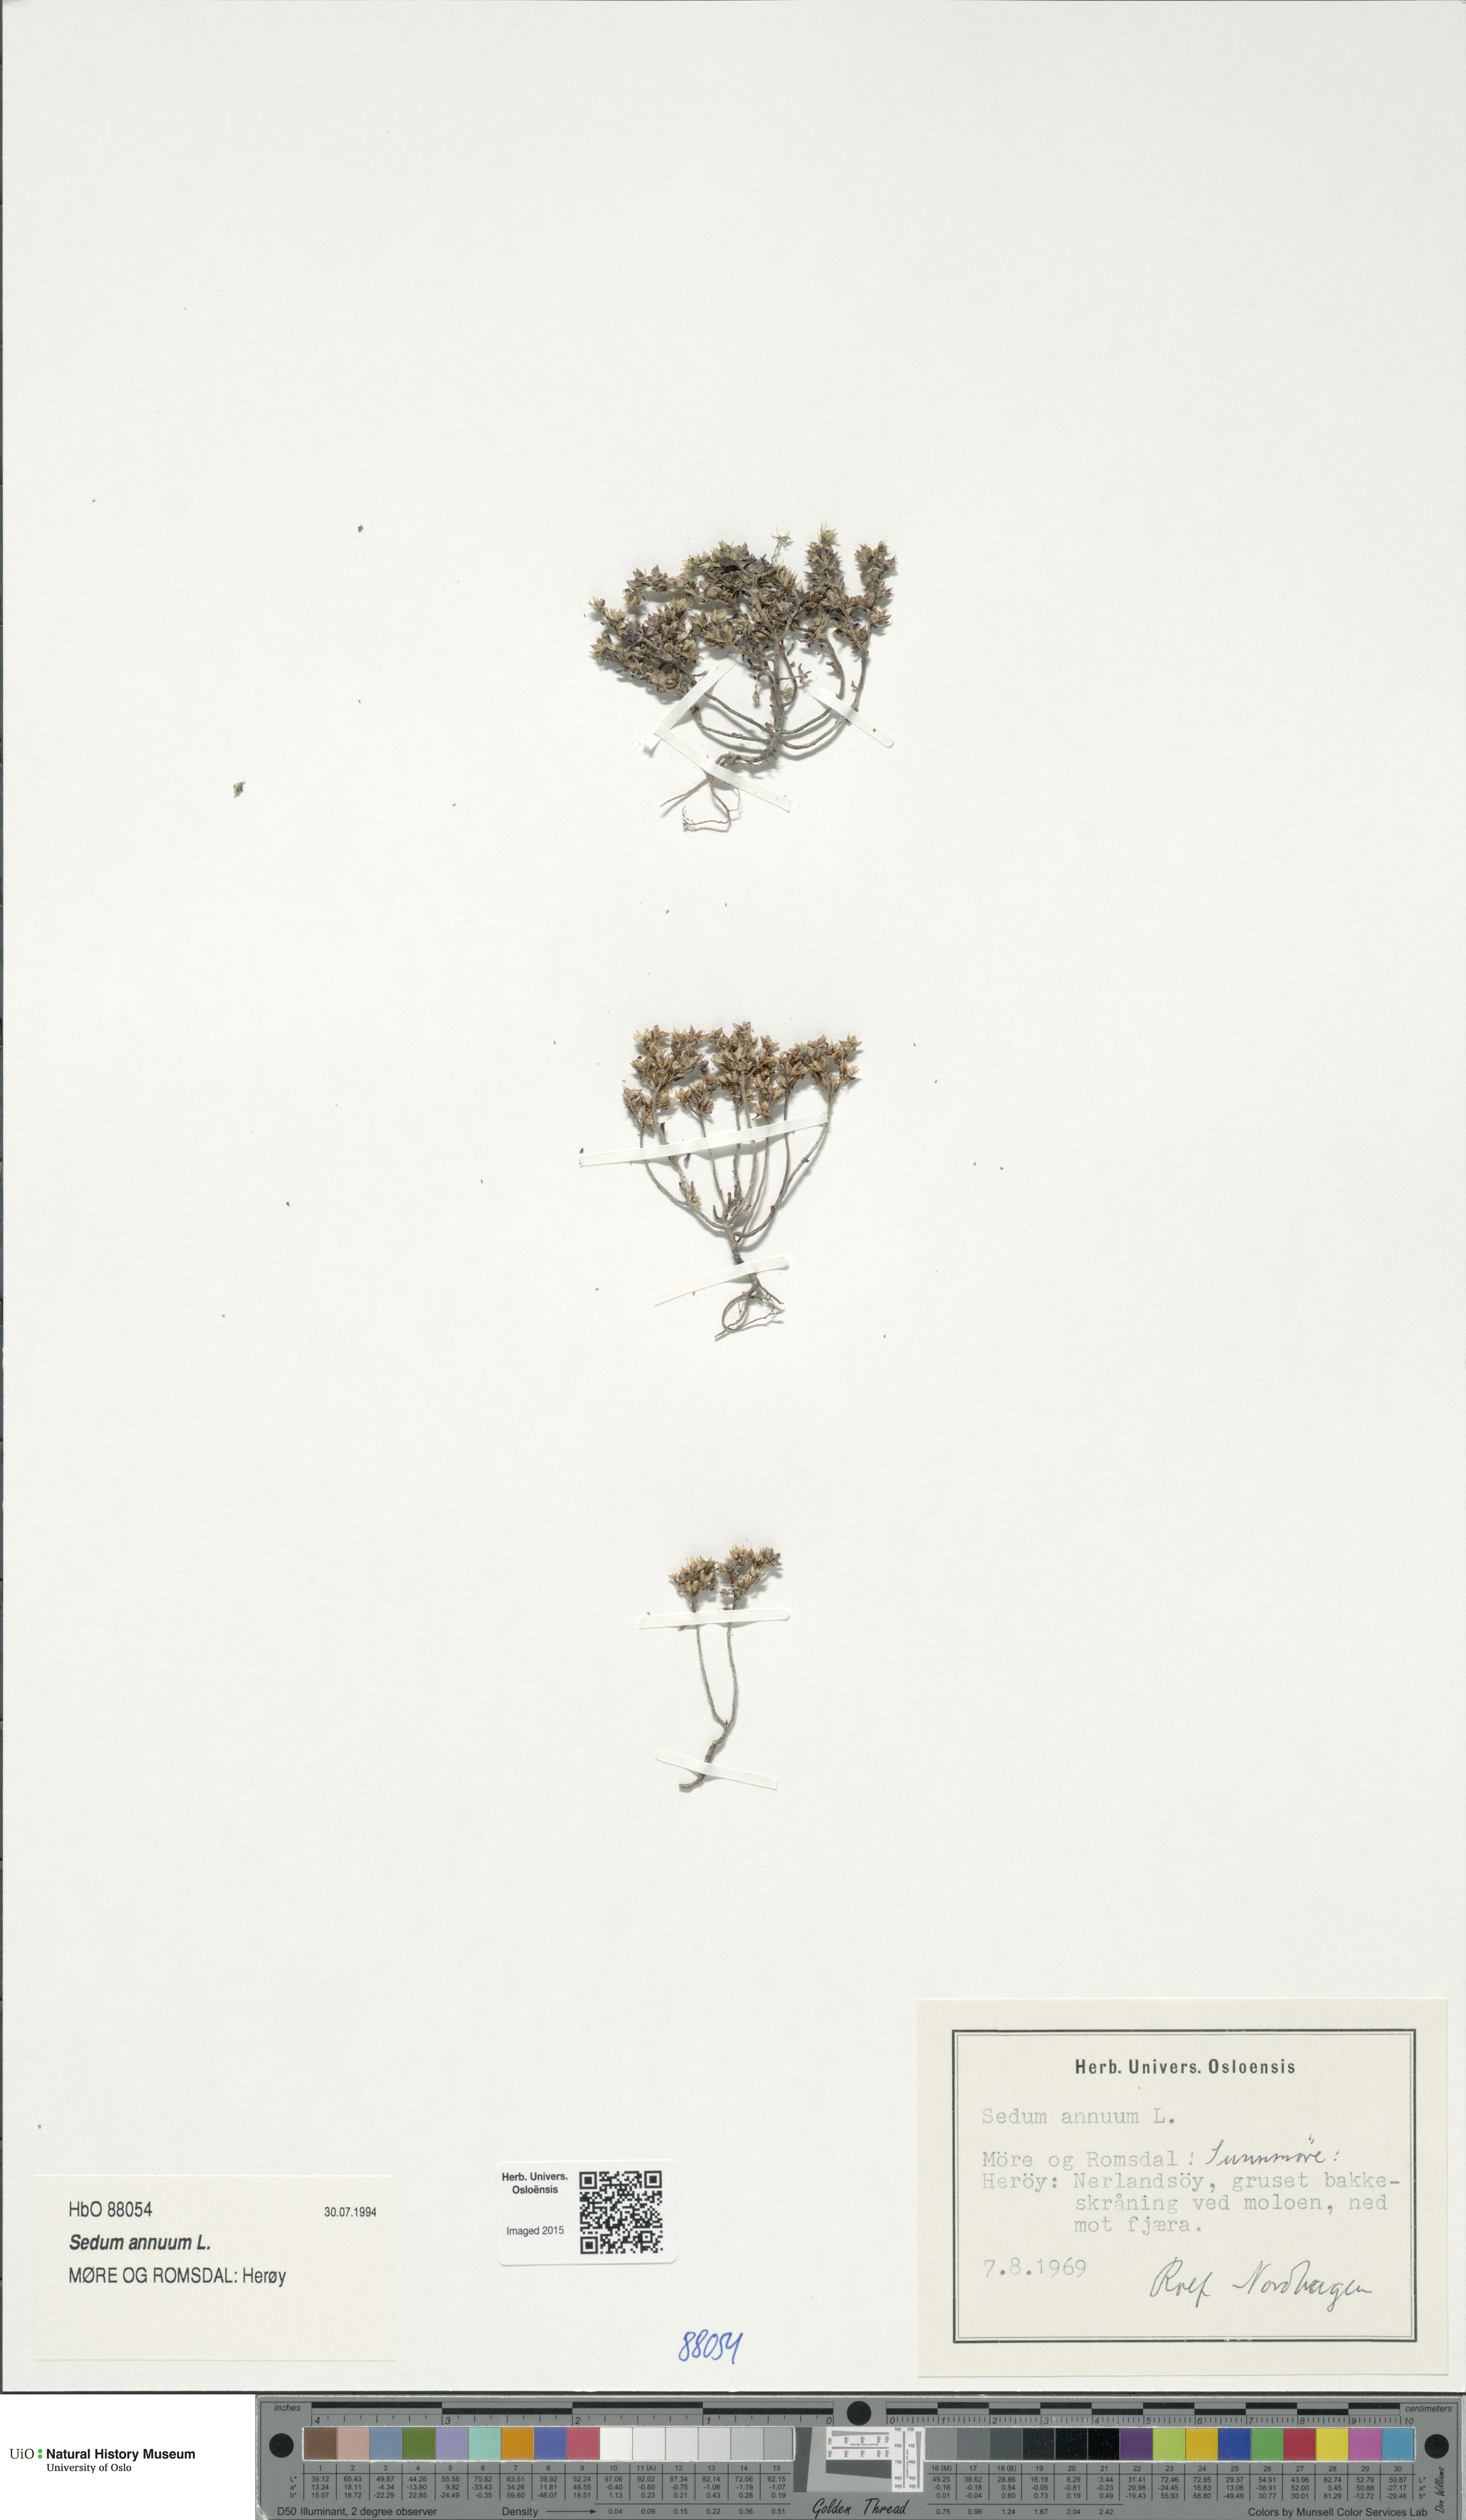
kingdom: Plantae
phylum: Tracheophyta
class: Magnoliopsida
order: Saxifragales
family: Crassulaceae
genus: Sedum
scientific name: Sedum annuum
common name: Annual stonecrop
